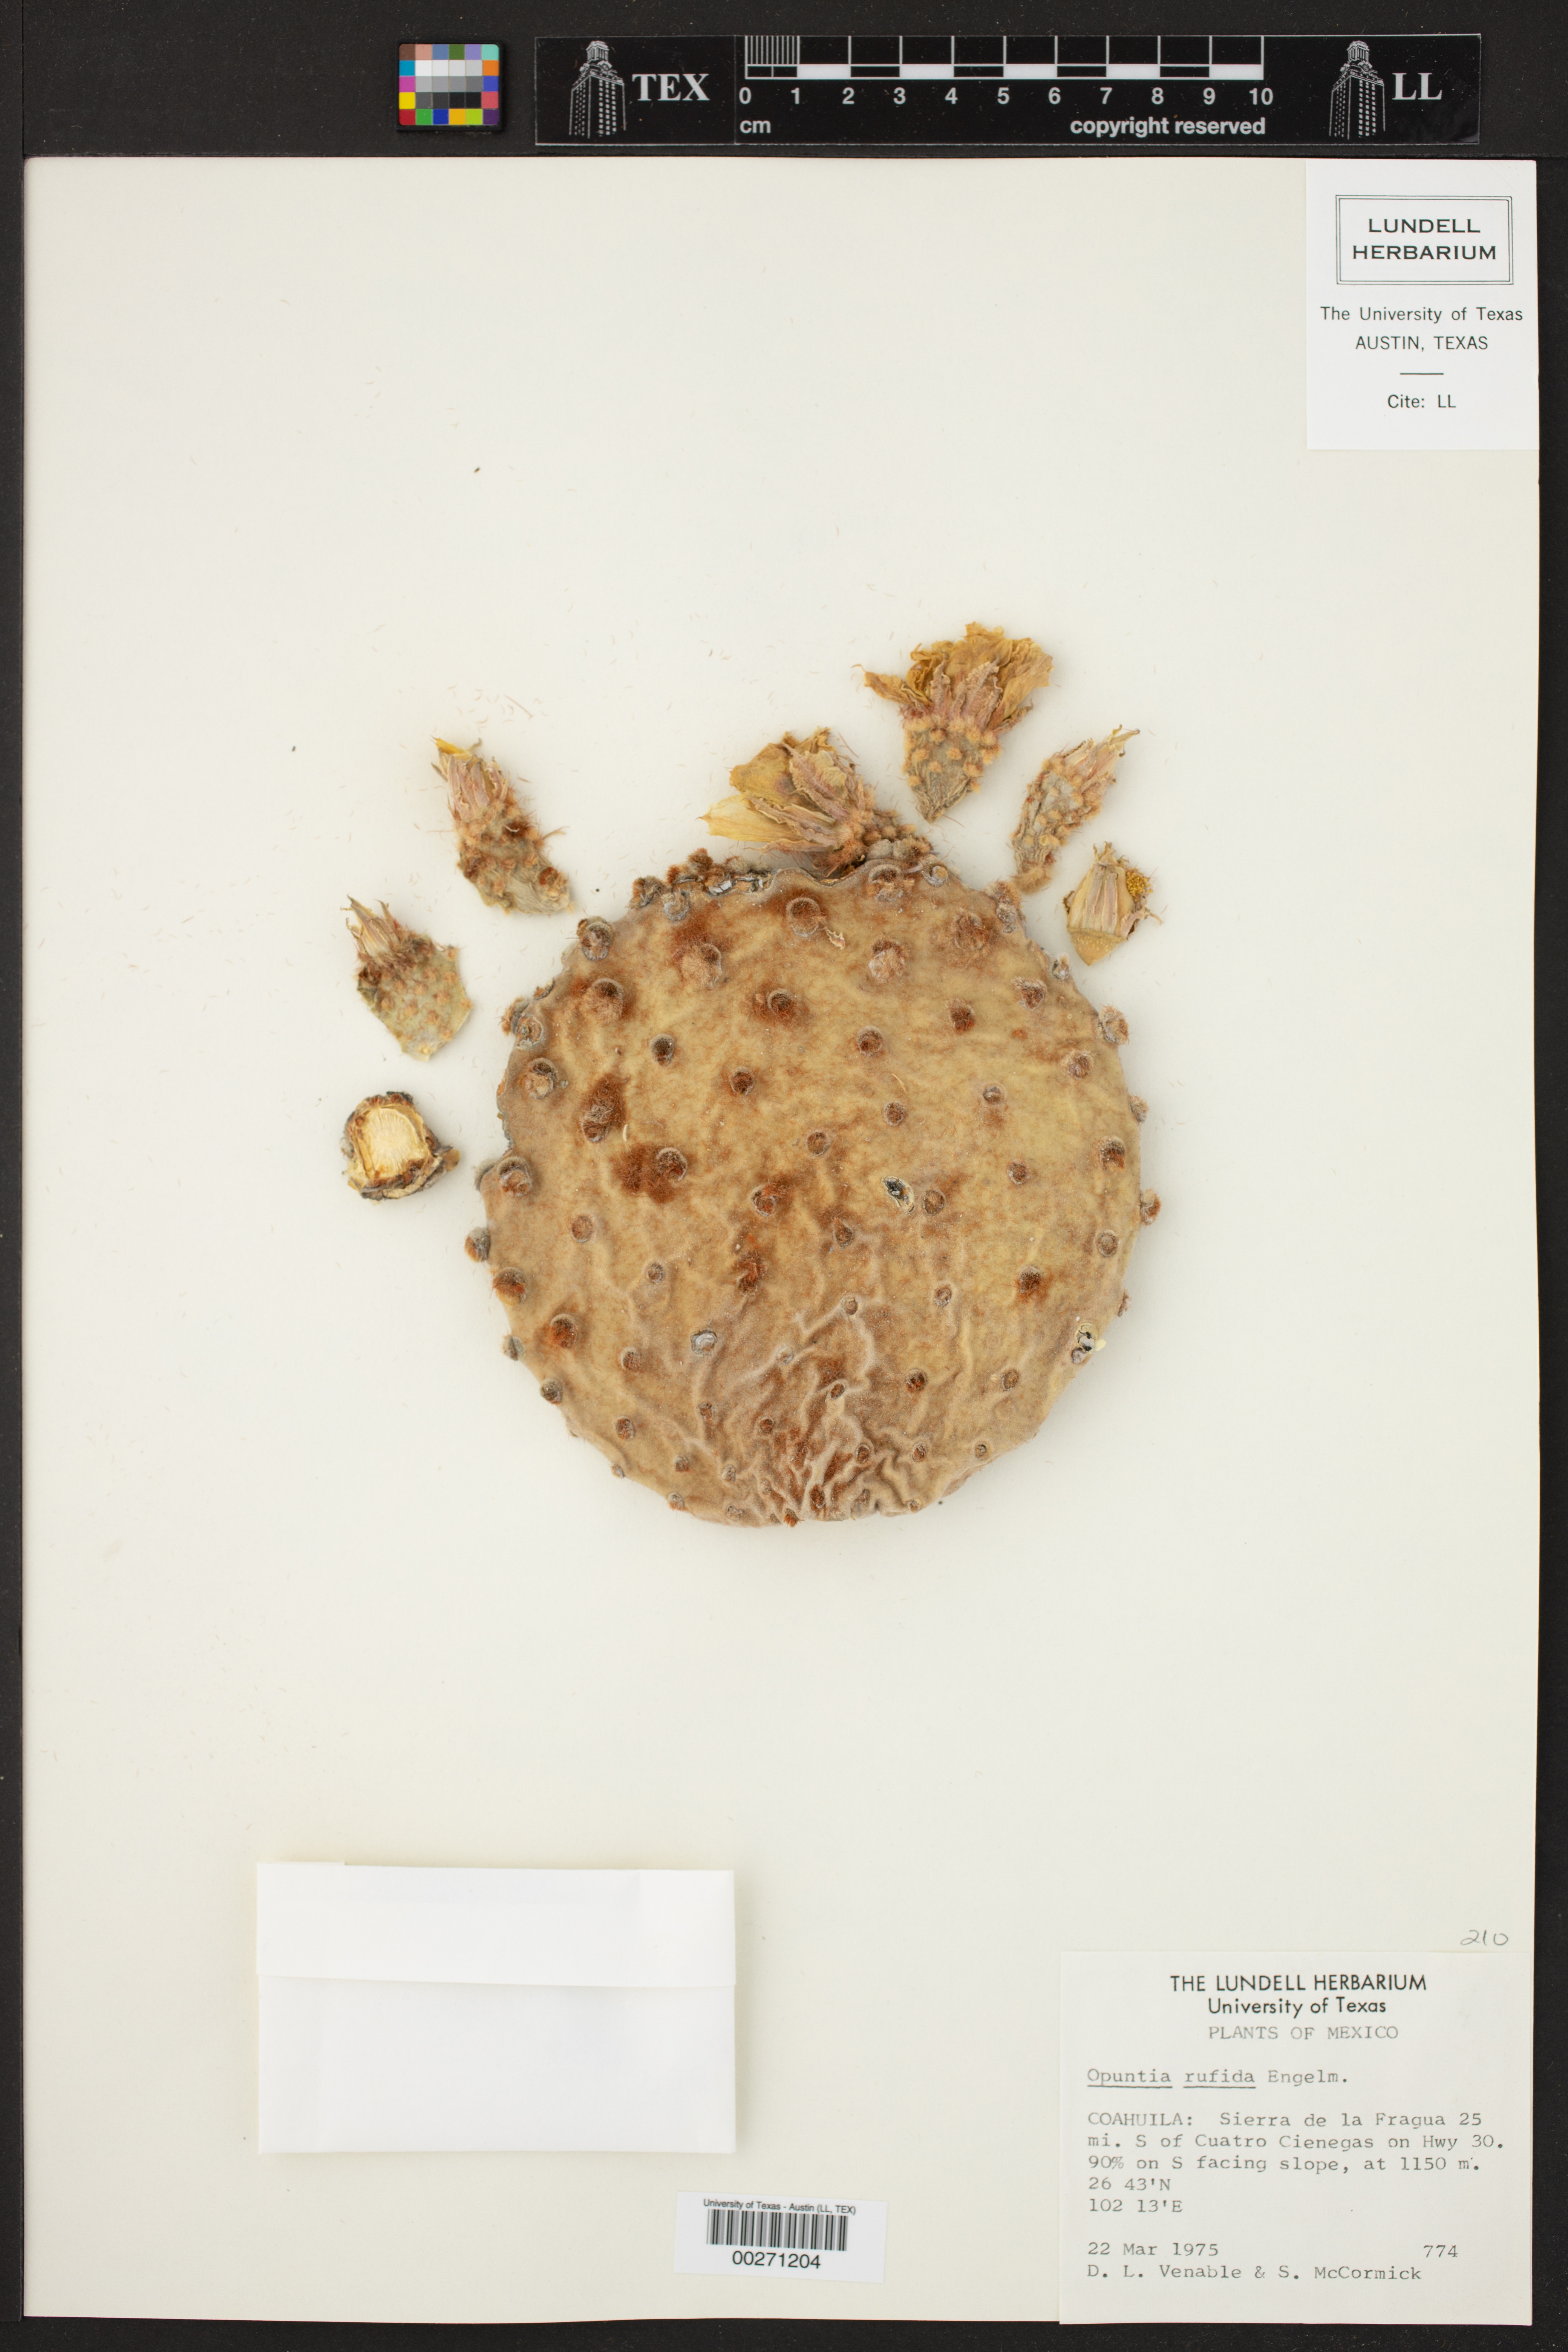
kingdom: Plantae
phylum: Tracheophyta
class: Magnoliopsida
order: Caryophyllales
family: Cactaceae
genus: Opuntia
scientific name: Opuntia rufida
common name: Blind pricklypear
